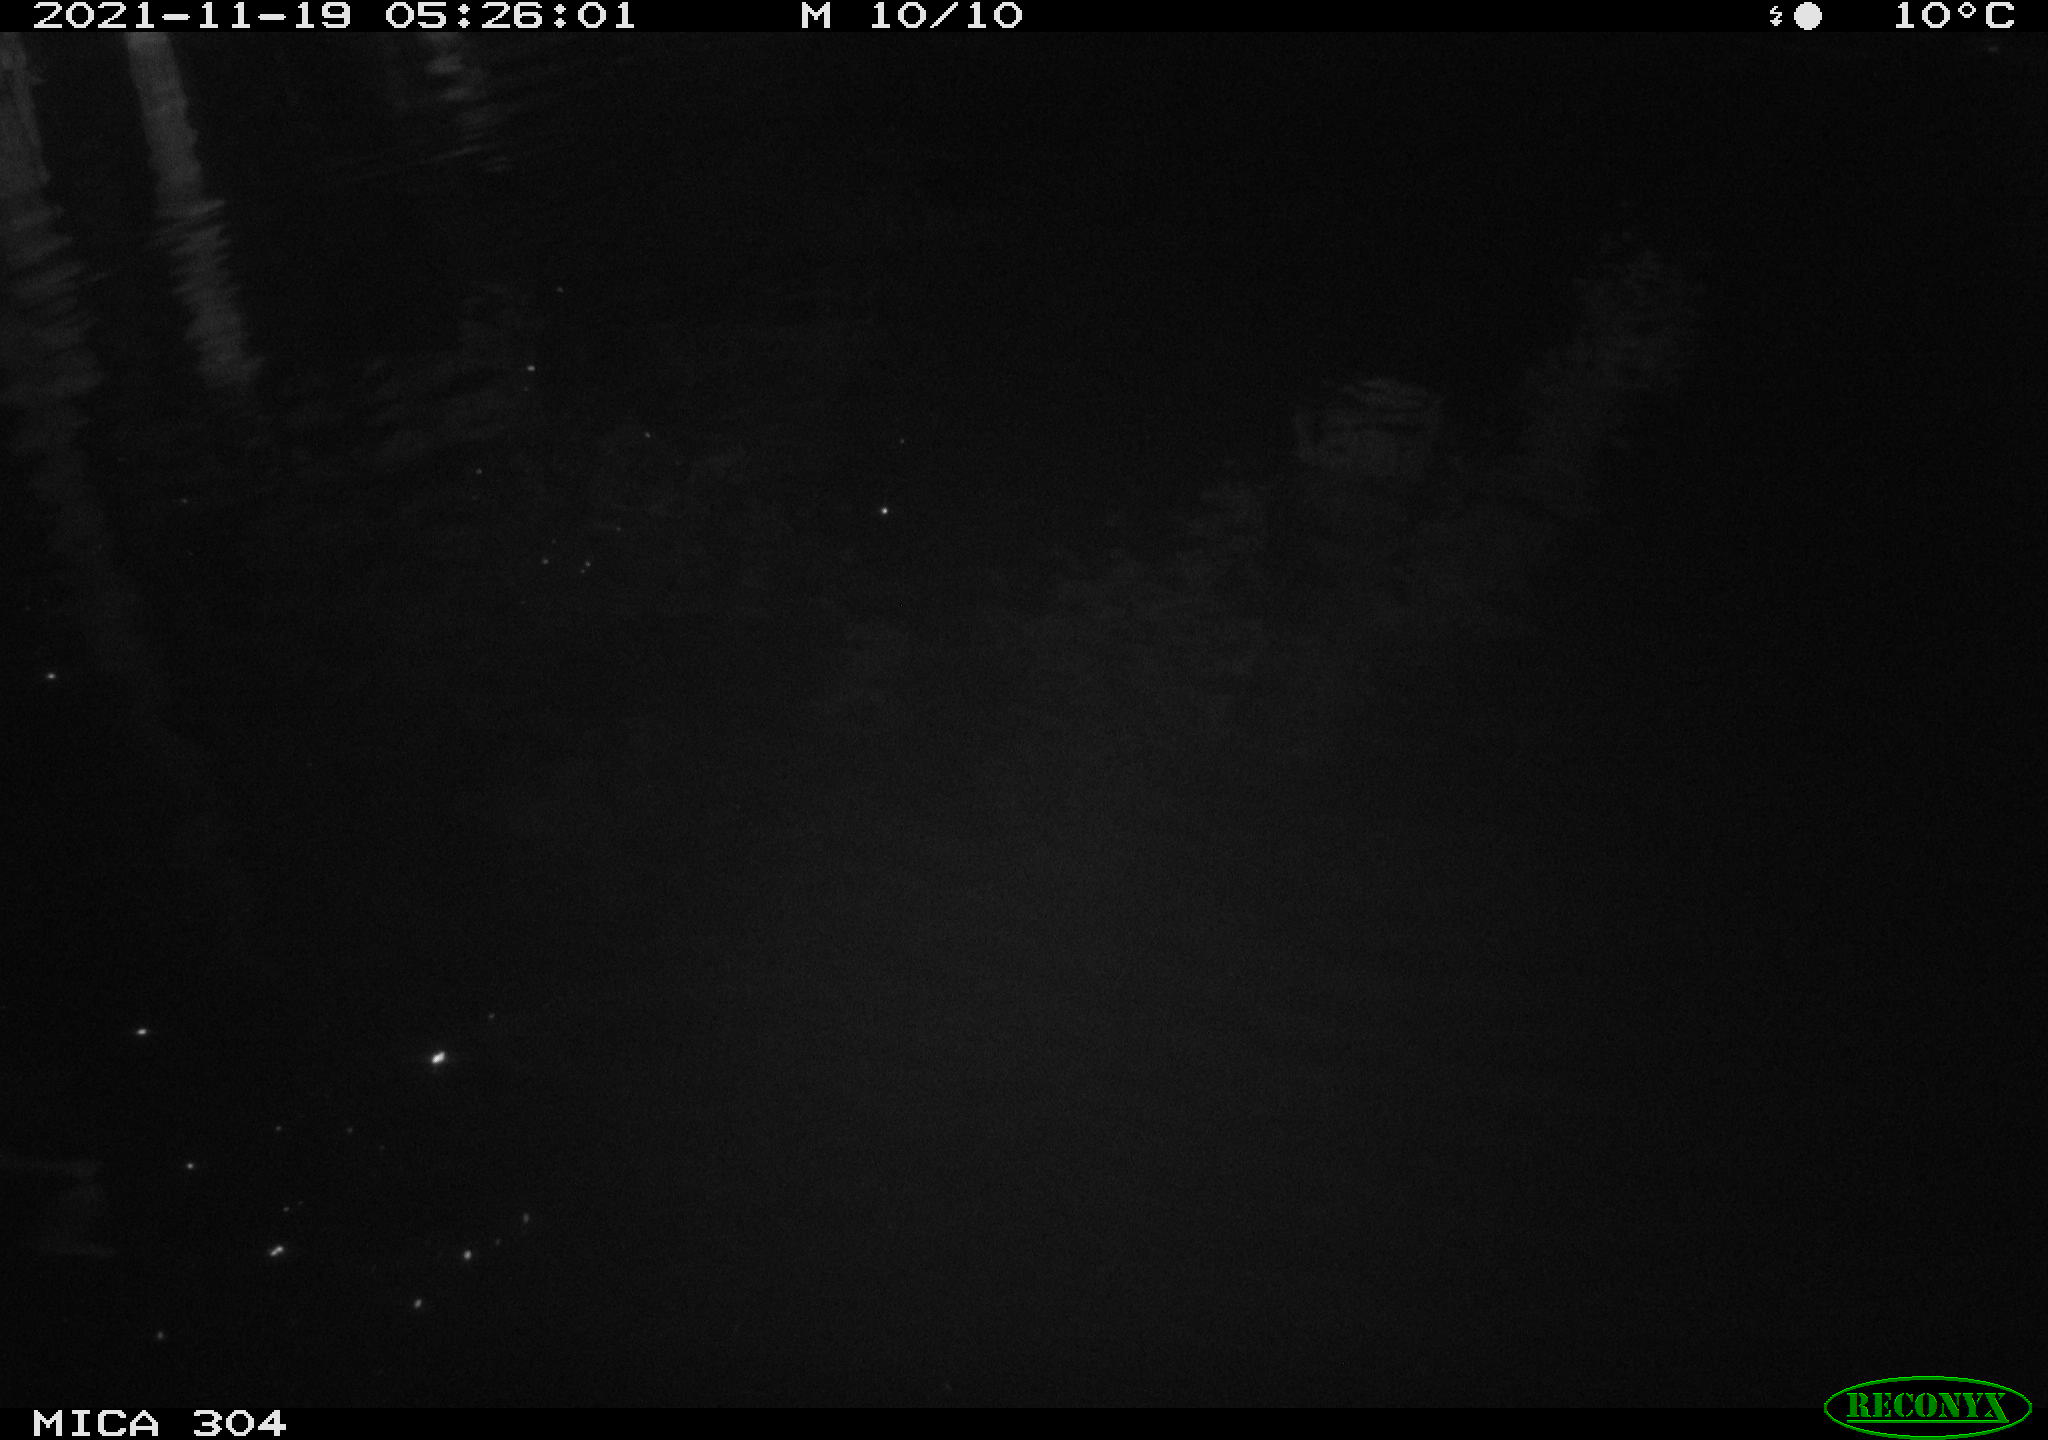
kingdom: Animalia
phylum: Chordata
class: Mammalia
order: Rodentia
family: Muridae
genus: Rattus
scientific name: Rattus norvegicus
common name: Brown rat
